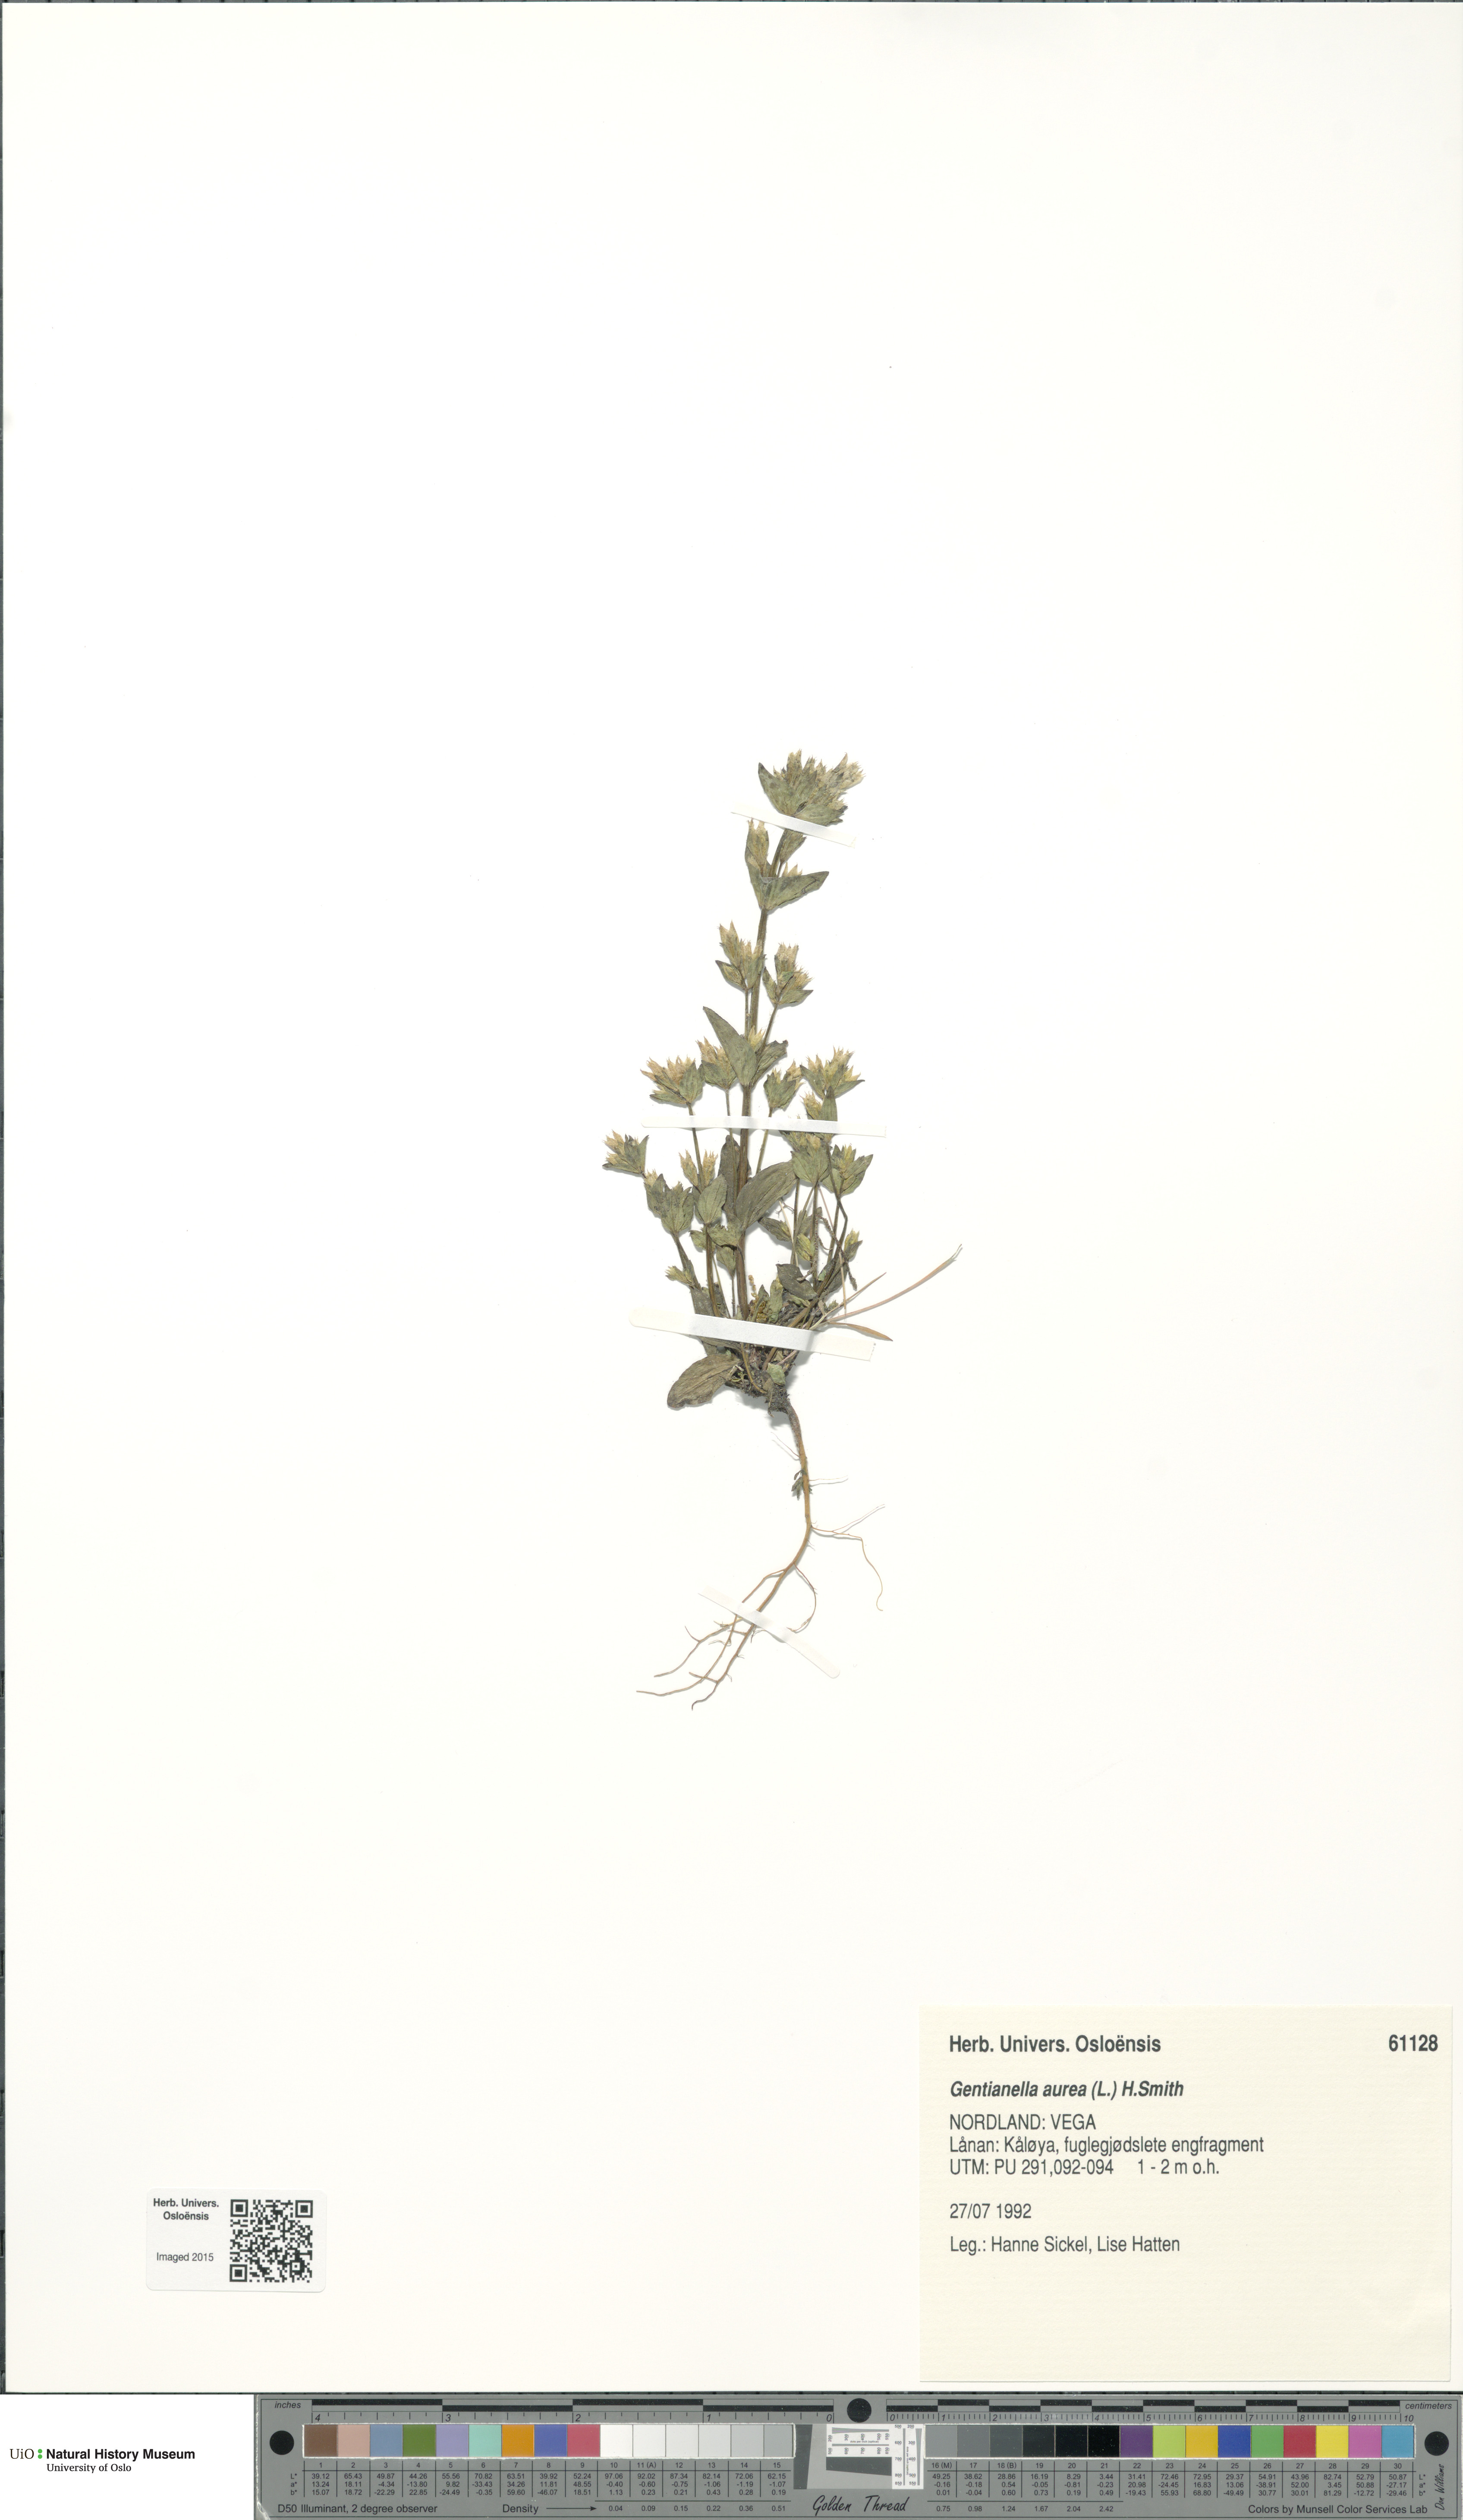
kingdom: Plantae
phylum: Tracheophyta
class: Magnoliopsida
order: Gentianales
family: Gentianaceae
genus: Gentianella
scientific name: Gentianella aurea
